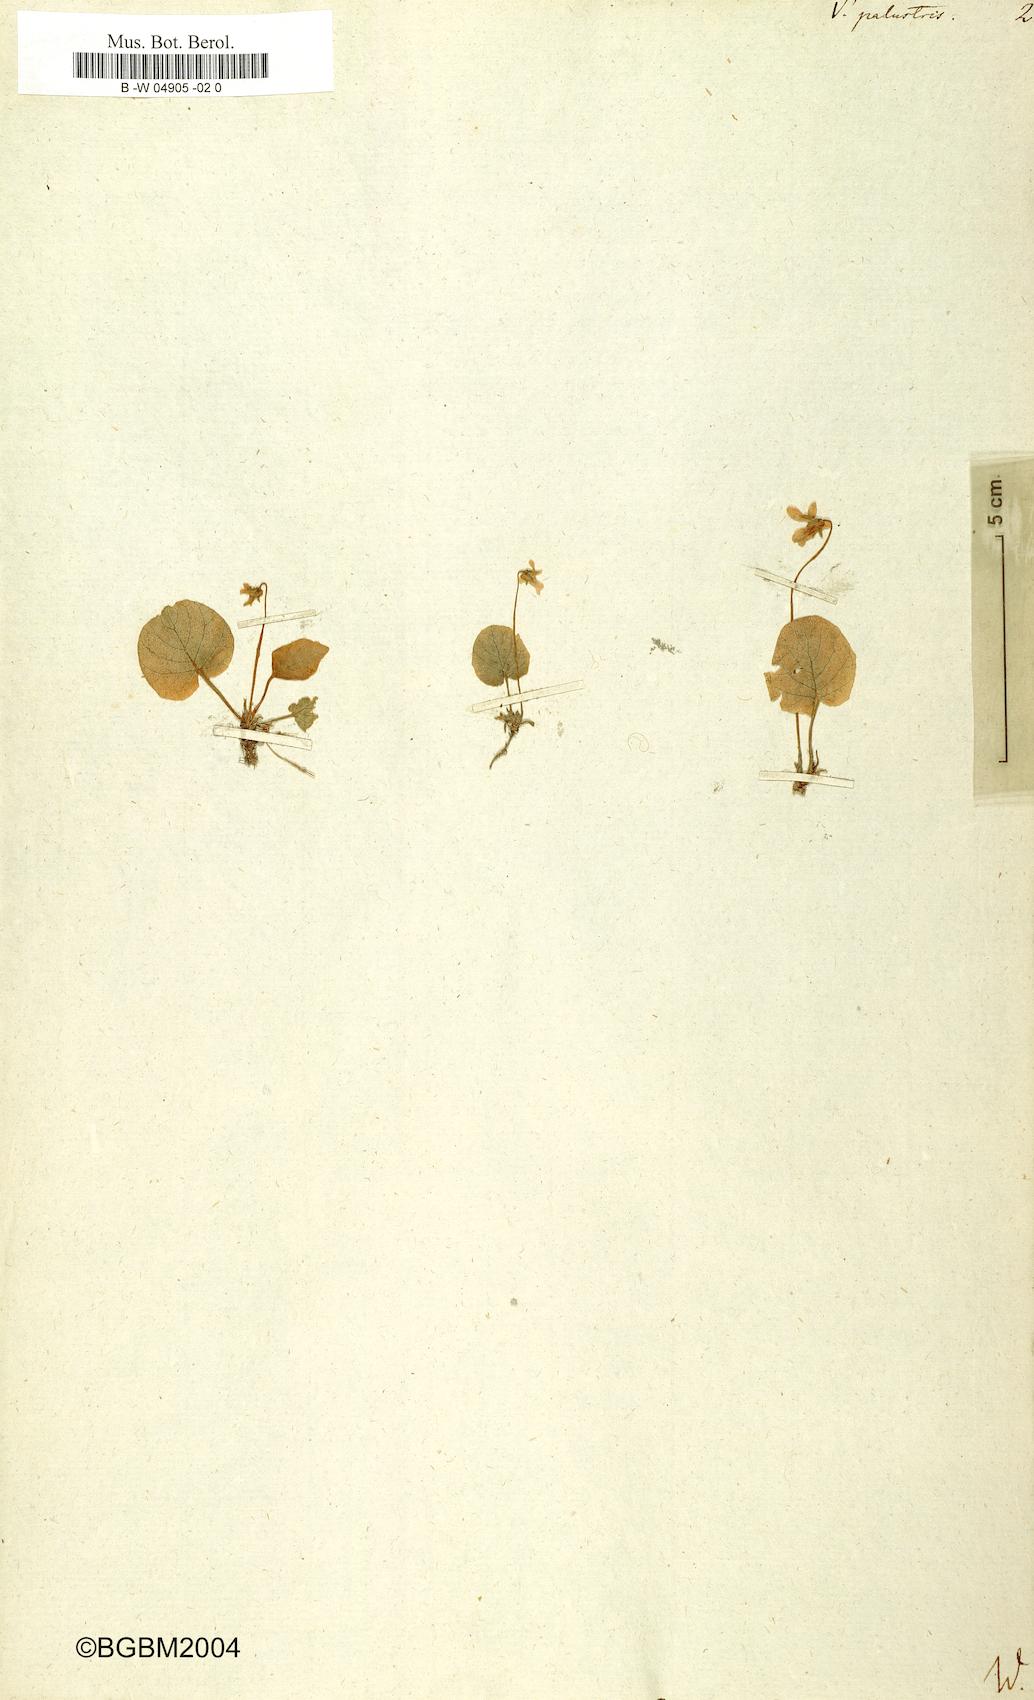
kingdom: Plantae
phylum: Tracheophyta
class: Magnoliopsida
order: Malpighiales
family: Violaceae
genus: Viola
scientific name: Viola palustris
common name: Marsh violet
